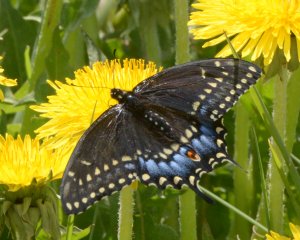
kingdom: Animalia
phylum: Arthropoda
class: Insecta
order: Lepidoptera
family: Papilionidae
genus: Papilio
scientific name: Papilio polyxenes
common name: Black Swallowtail
